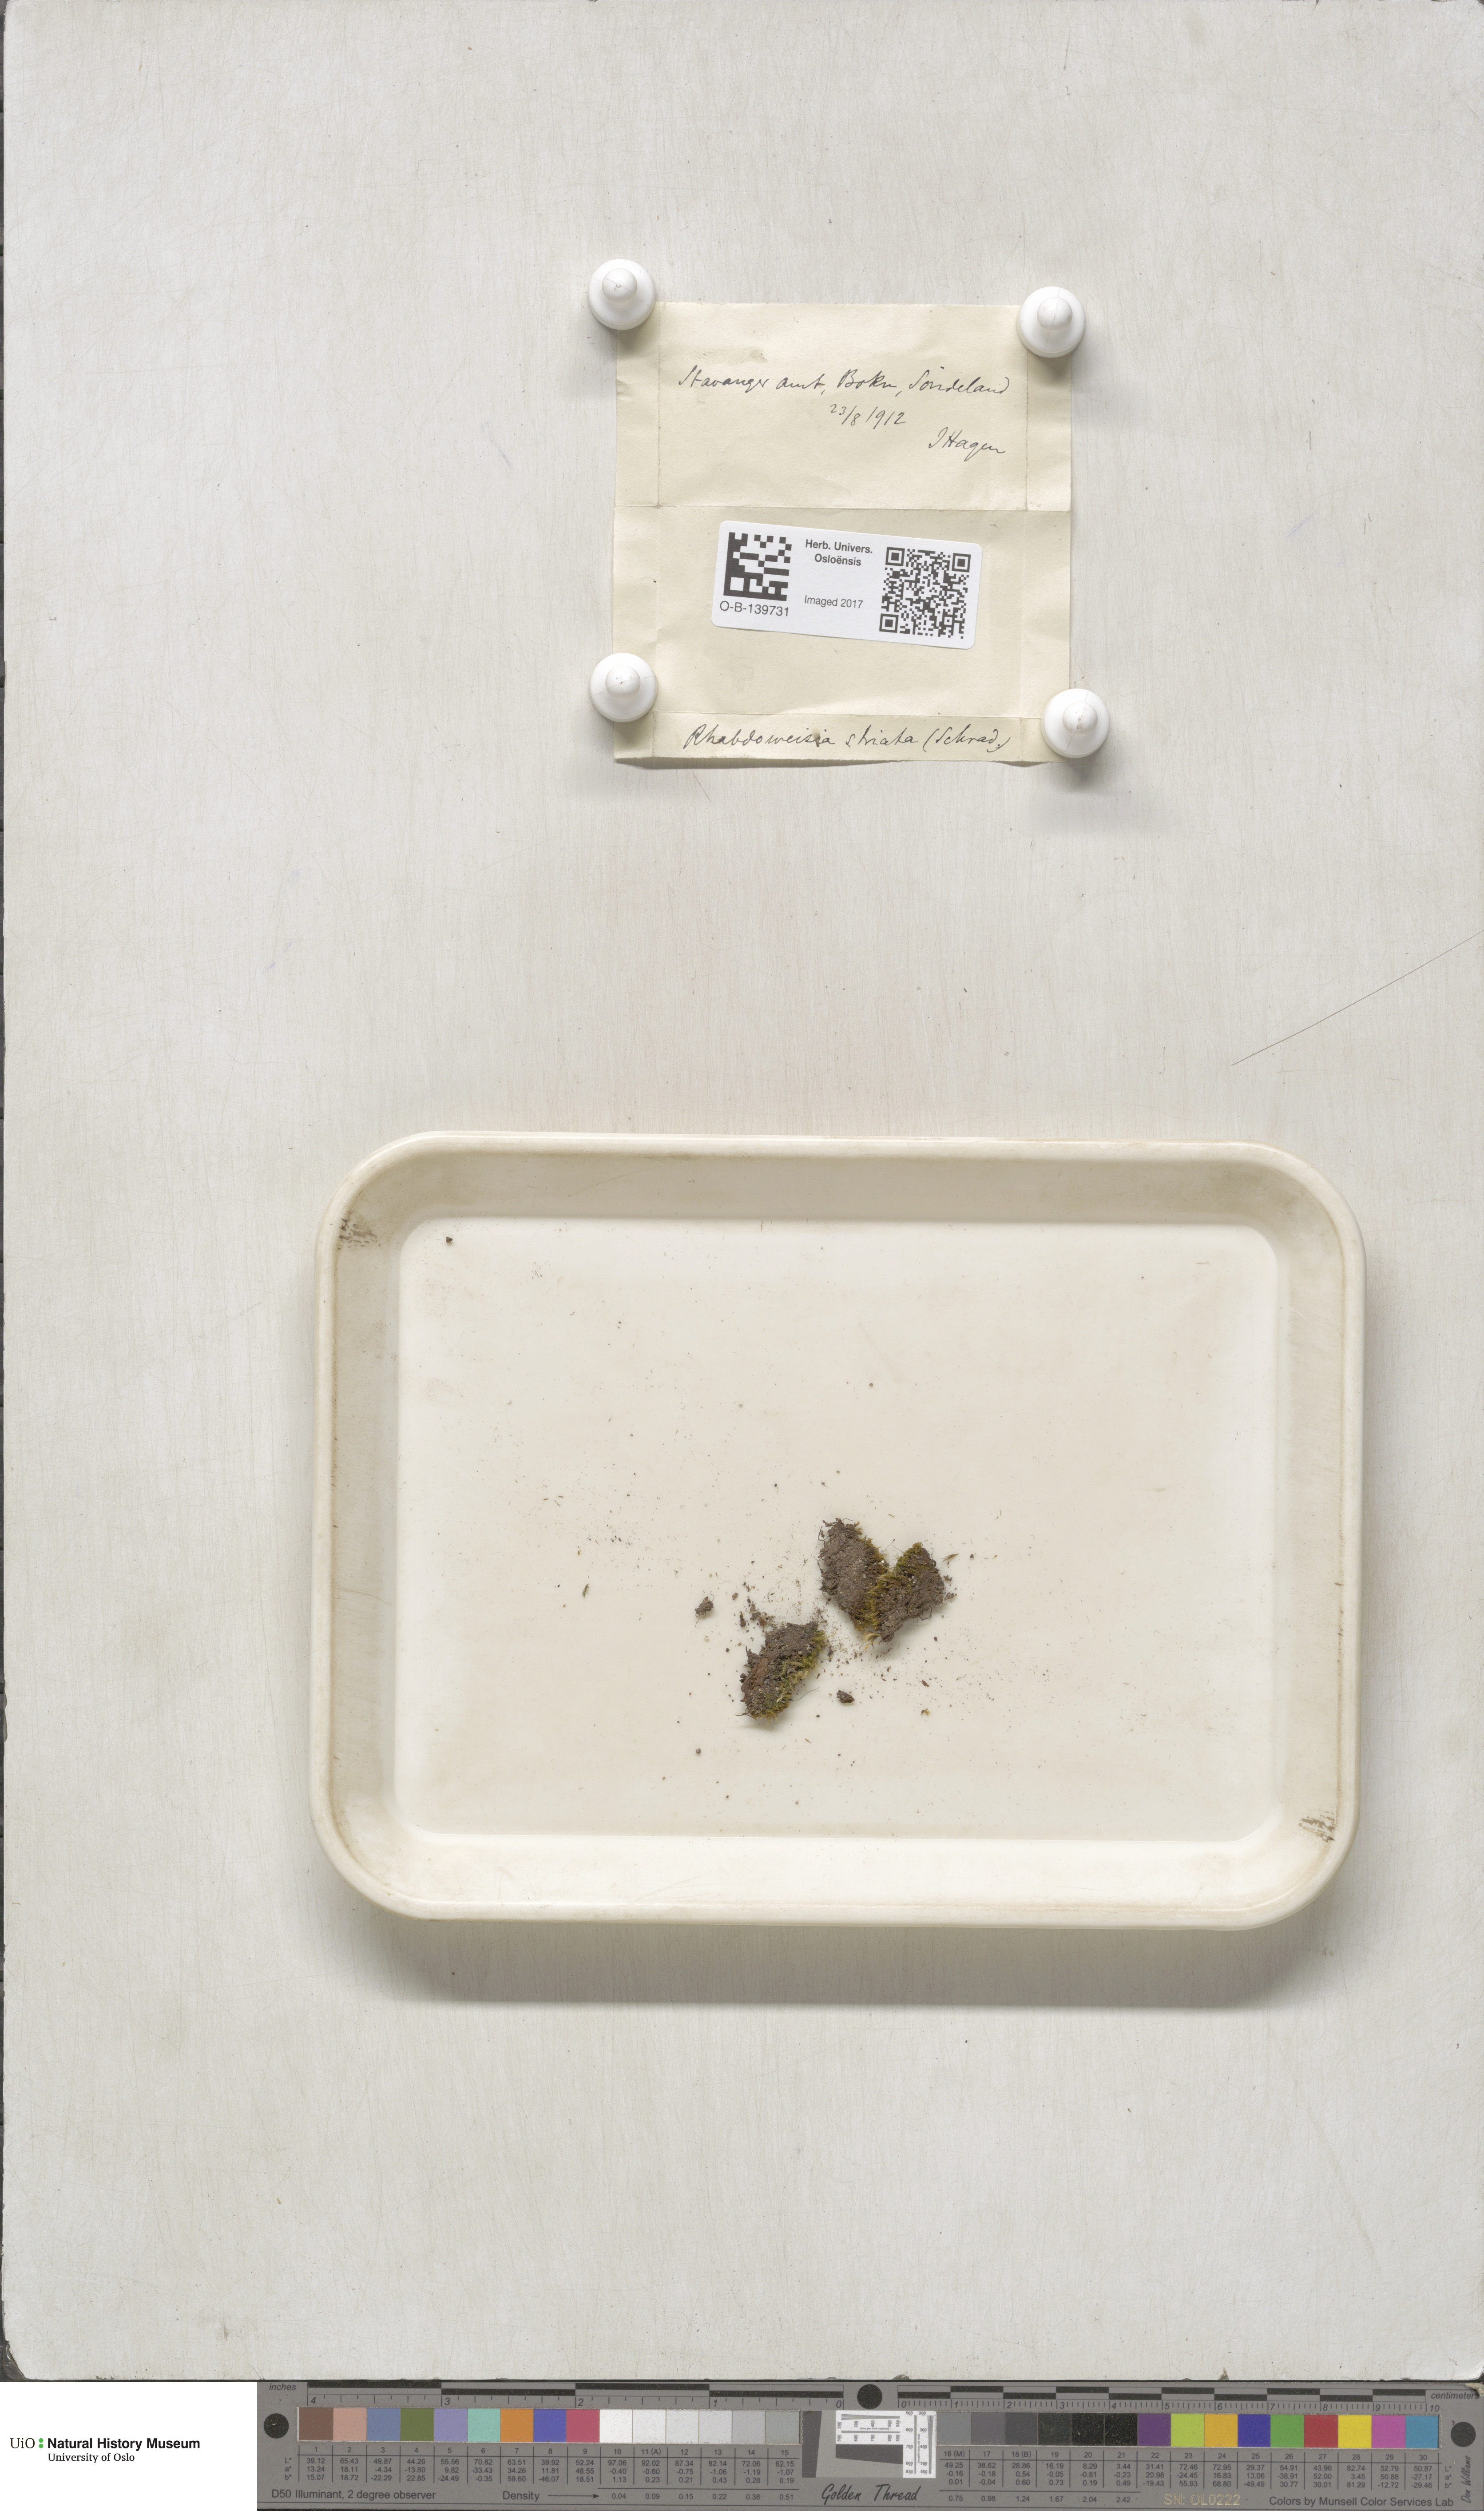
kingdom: Plantae
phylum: Bryophyta
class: Bryopsida
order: Dicranales
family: Rhabdoweisiaceae
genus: Rhabdoweisia
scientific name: Rhabdoweisia fugax
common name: Dwarf streak-moss
